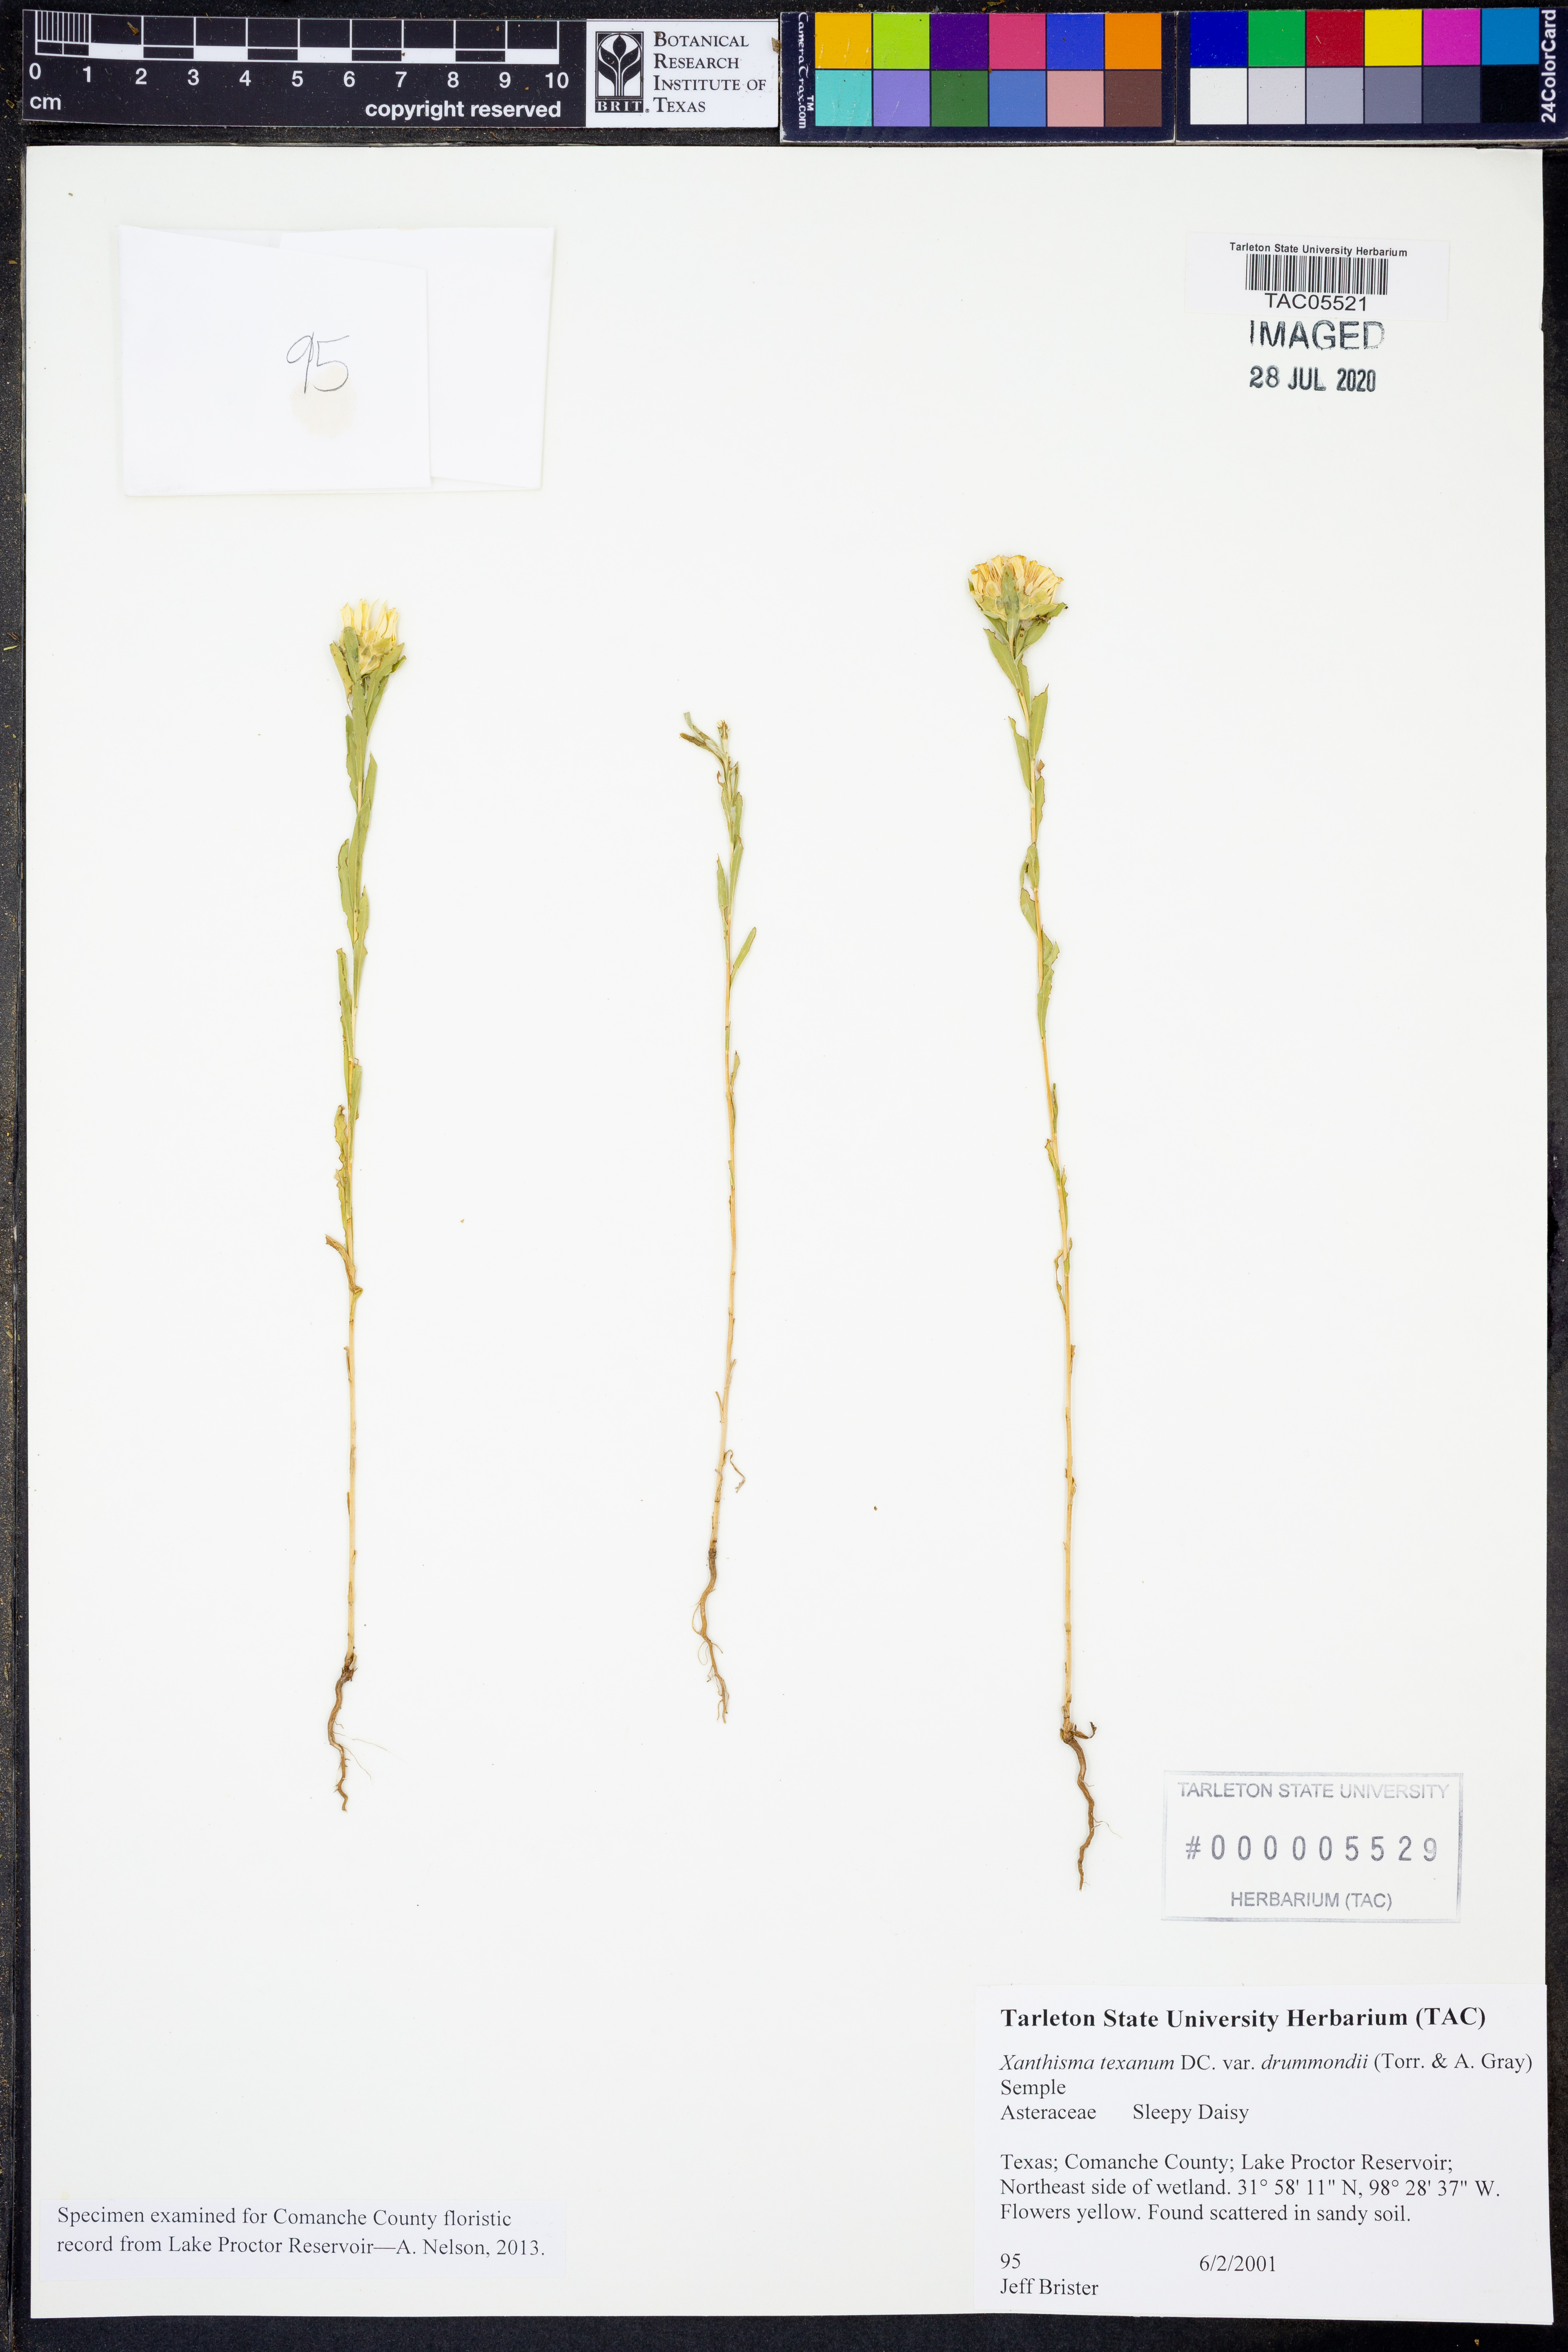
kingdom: Plantae
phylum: Tracheophyta
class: Magnoliopsida
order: Asterales
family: Asteraceae
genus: Xanthisma
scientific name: Xanthisma texanum
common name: Texas sleepy daisy
